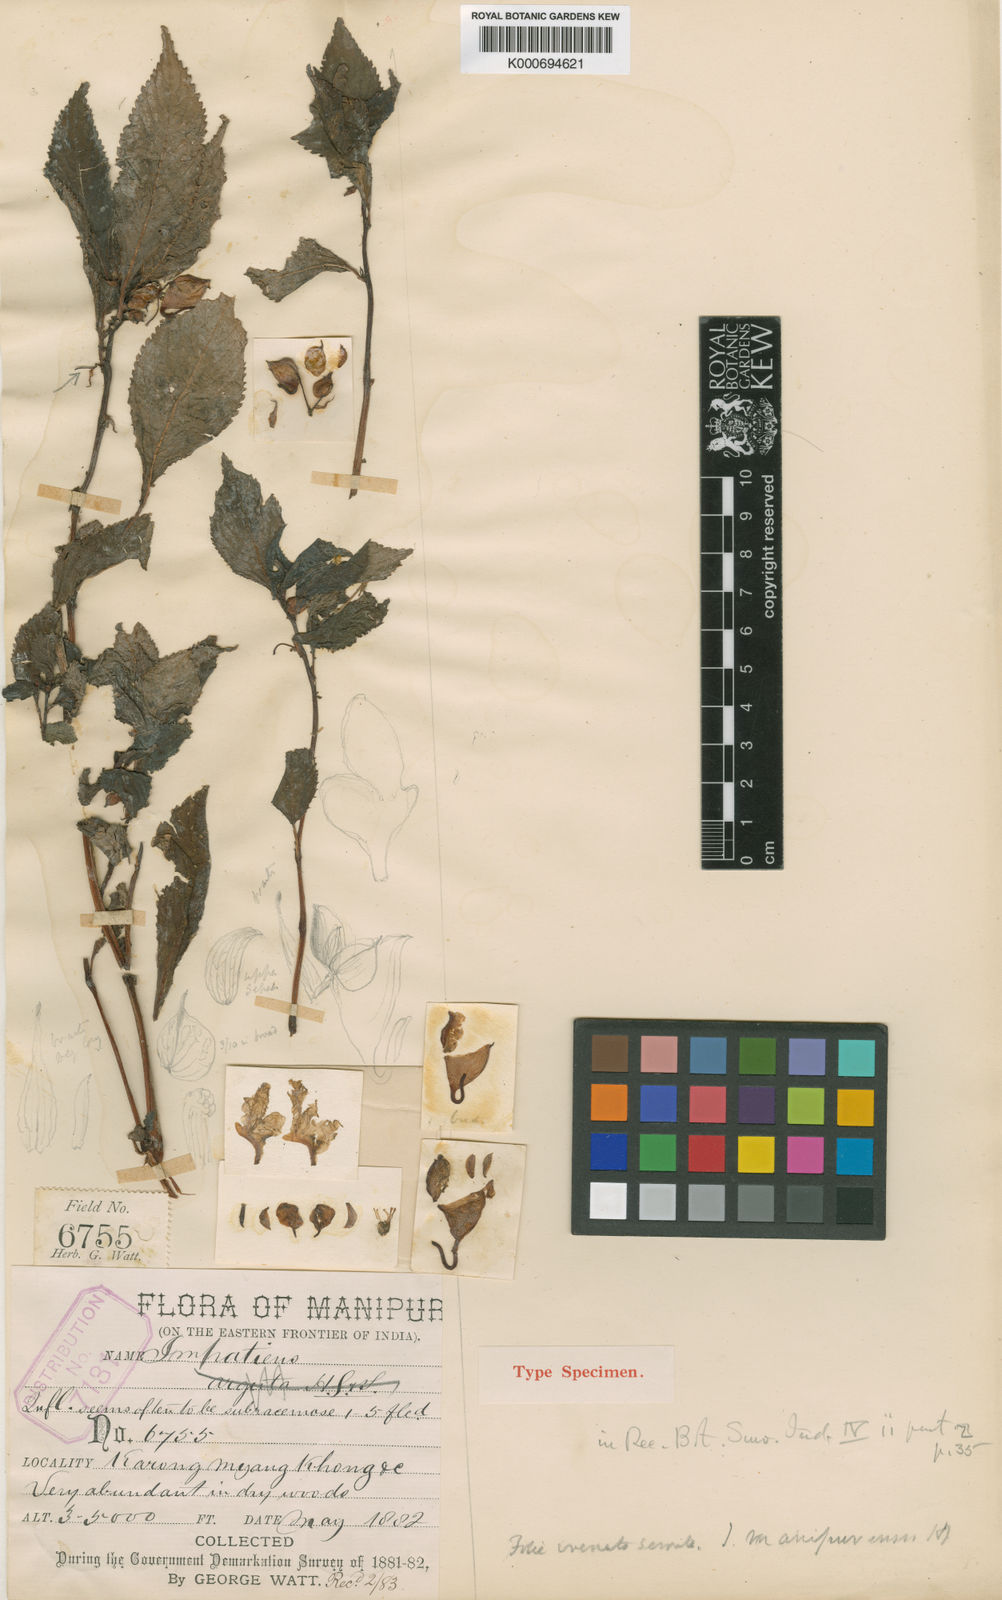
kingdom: Plantae
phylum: Tracheophyta
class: Magnoliopsida
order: Ericales
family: Balsaminaceae
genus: Impatiens
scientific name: Impatiens arguta
